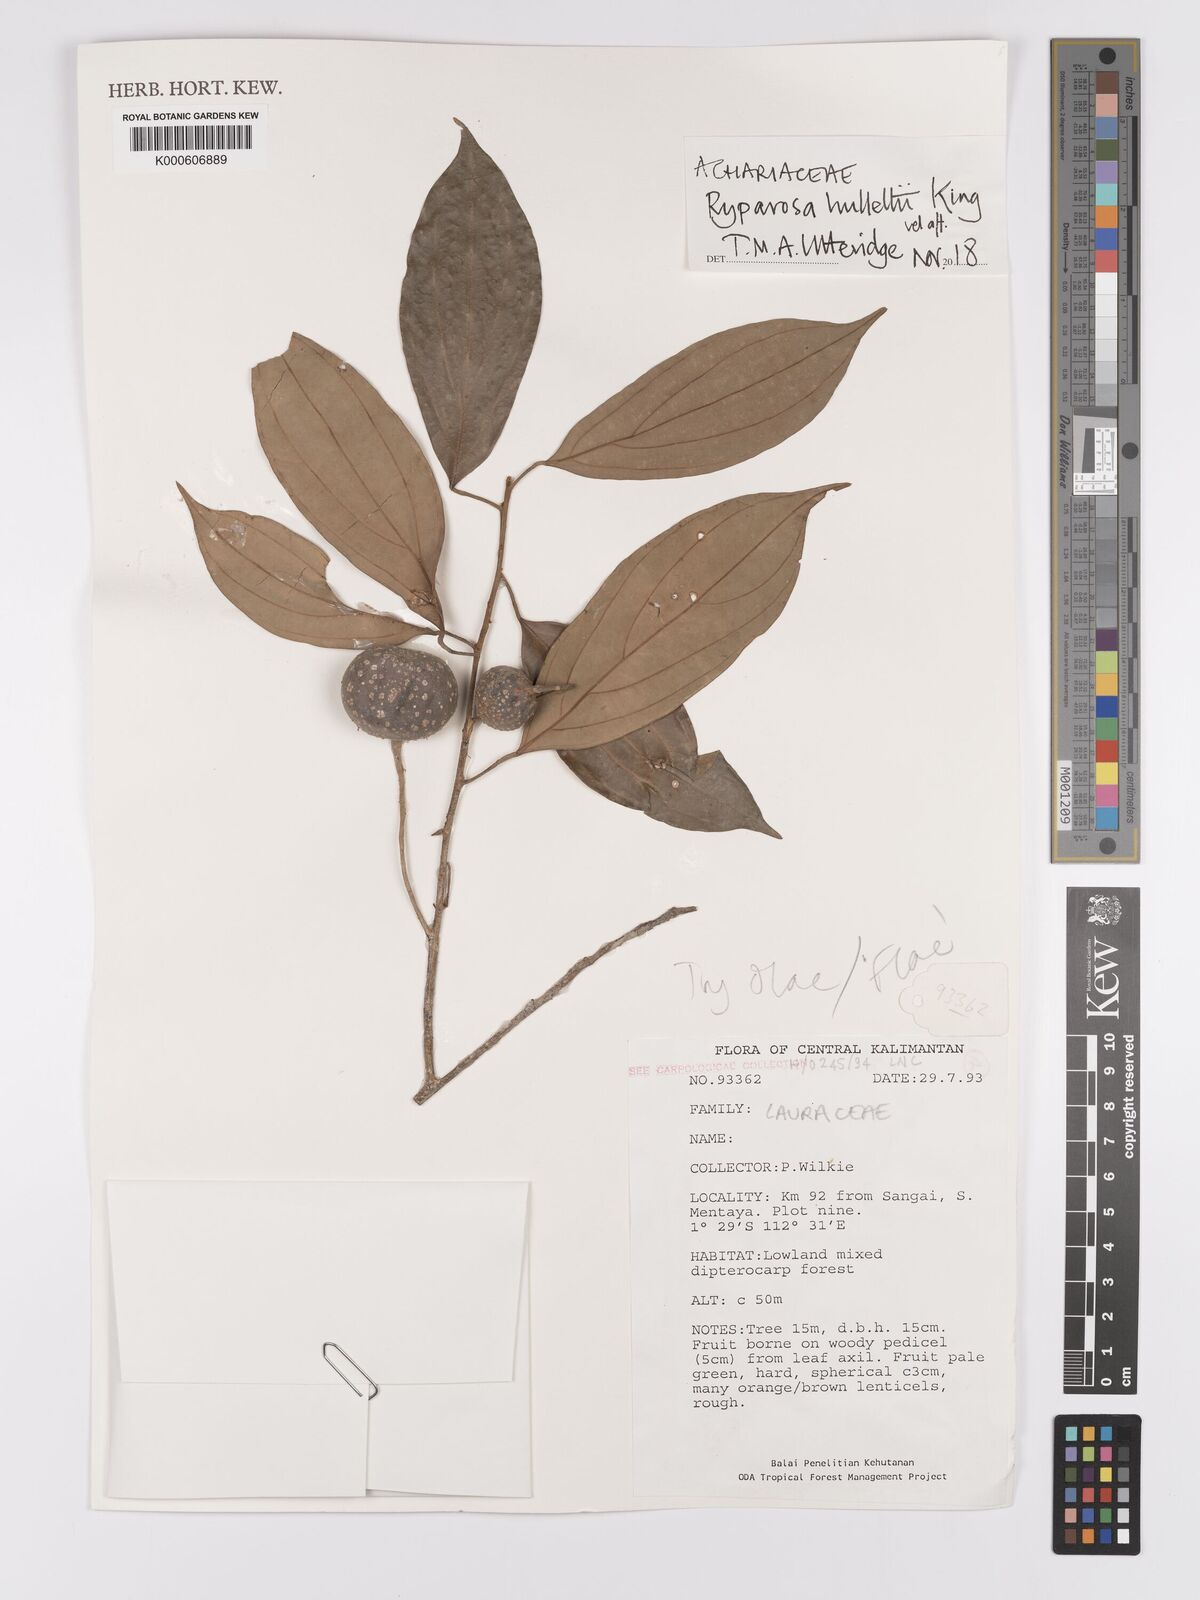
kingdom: Plantae
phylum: Tracheophyta
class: Magnoliopsida
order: Malpighiales
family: Achariaceae
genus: Ryparosa
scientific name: Ryparosa hullettii
